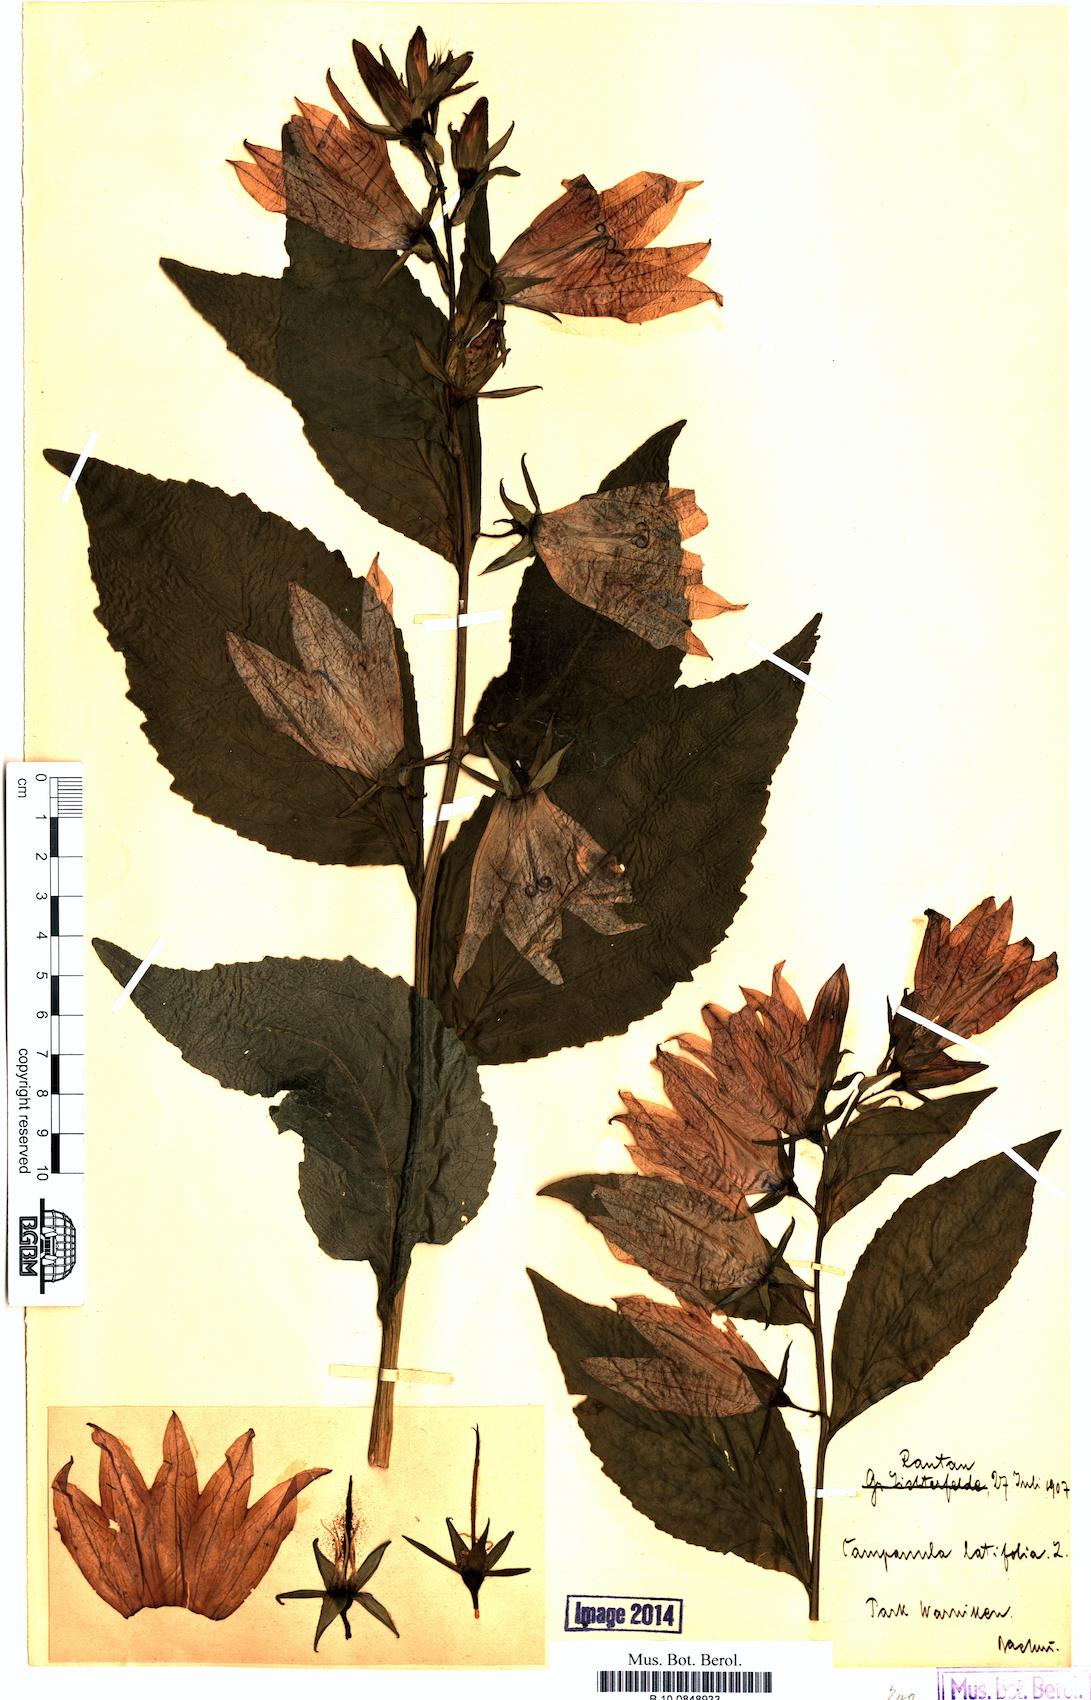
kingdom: Plantae
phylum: Tracheophyta
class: Magnoliopsida
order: Asterales
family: Campanulaceae
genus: Campanula
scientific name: Campanula latifolia
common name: Giant bellflower
